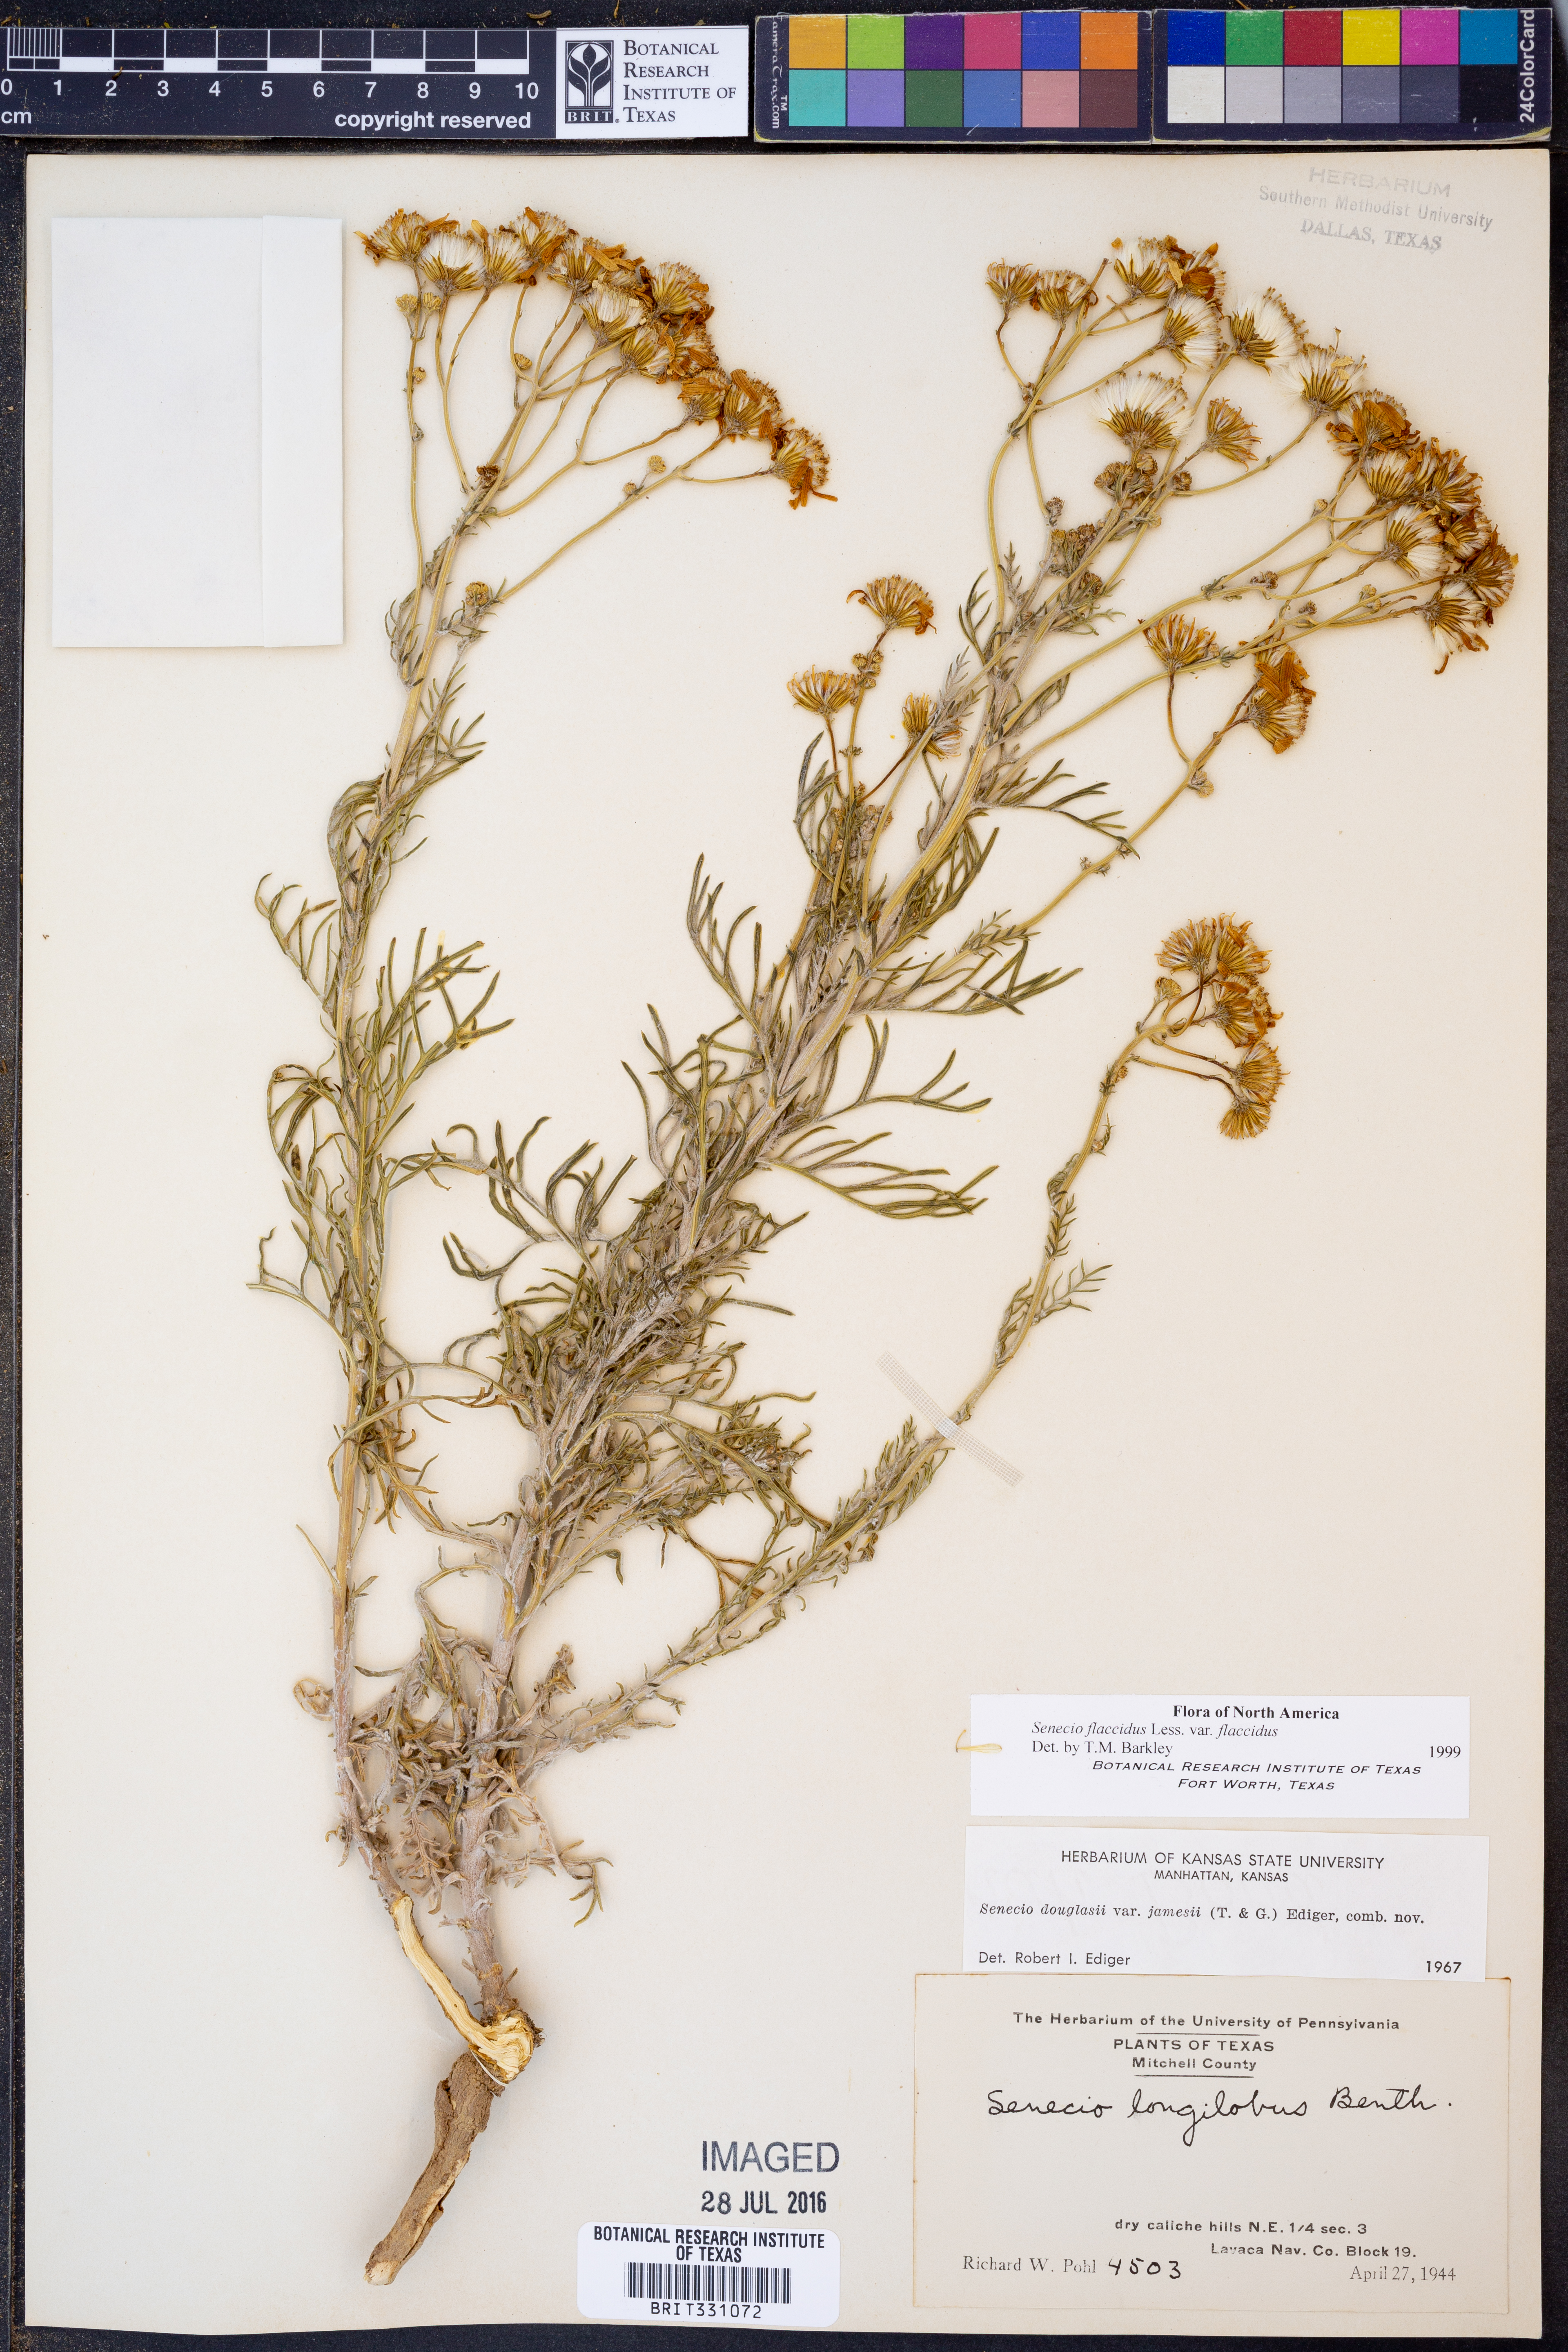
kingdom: Plantae
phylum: Tracheophyta
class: Magnoliopsida
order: Asterales
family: Asteraceae
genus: Senecio
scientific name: Senecio flaccidus
